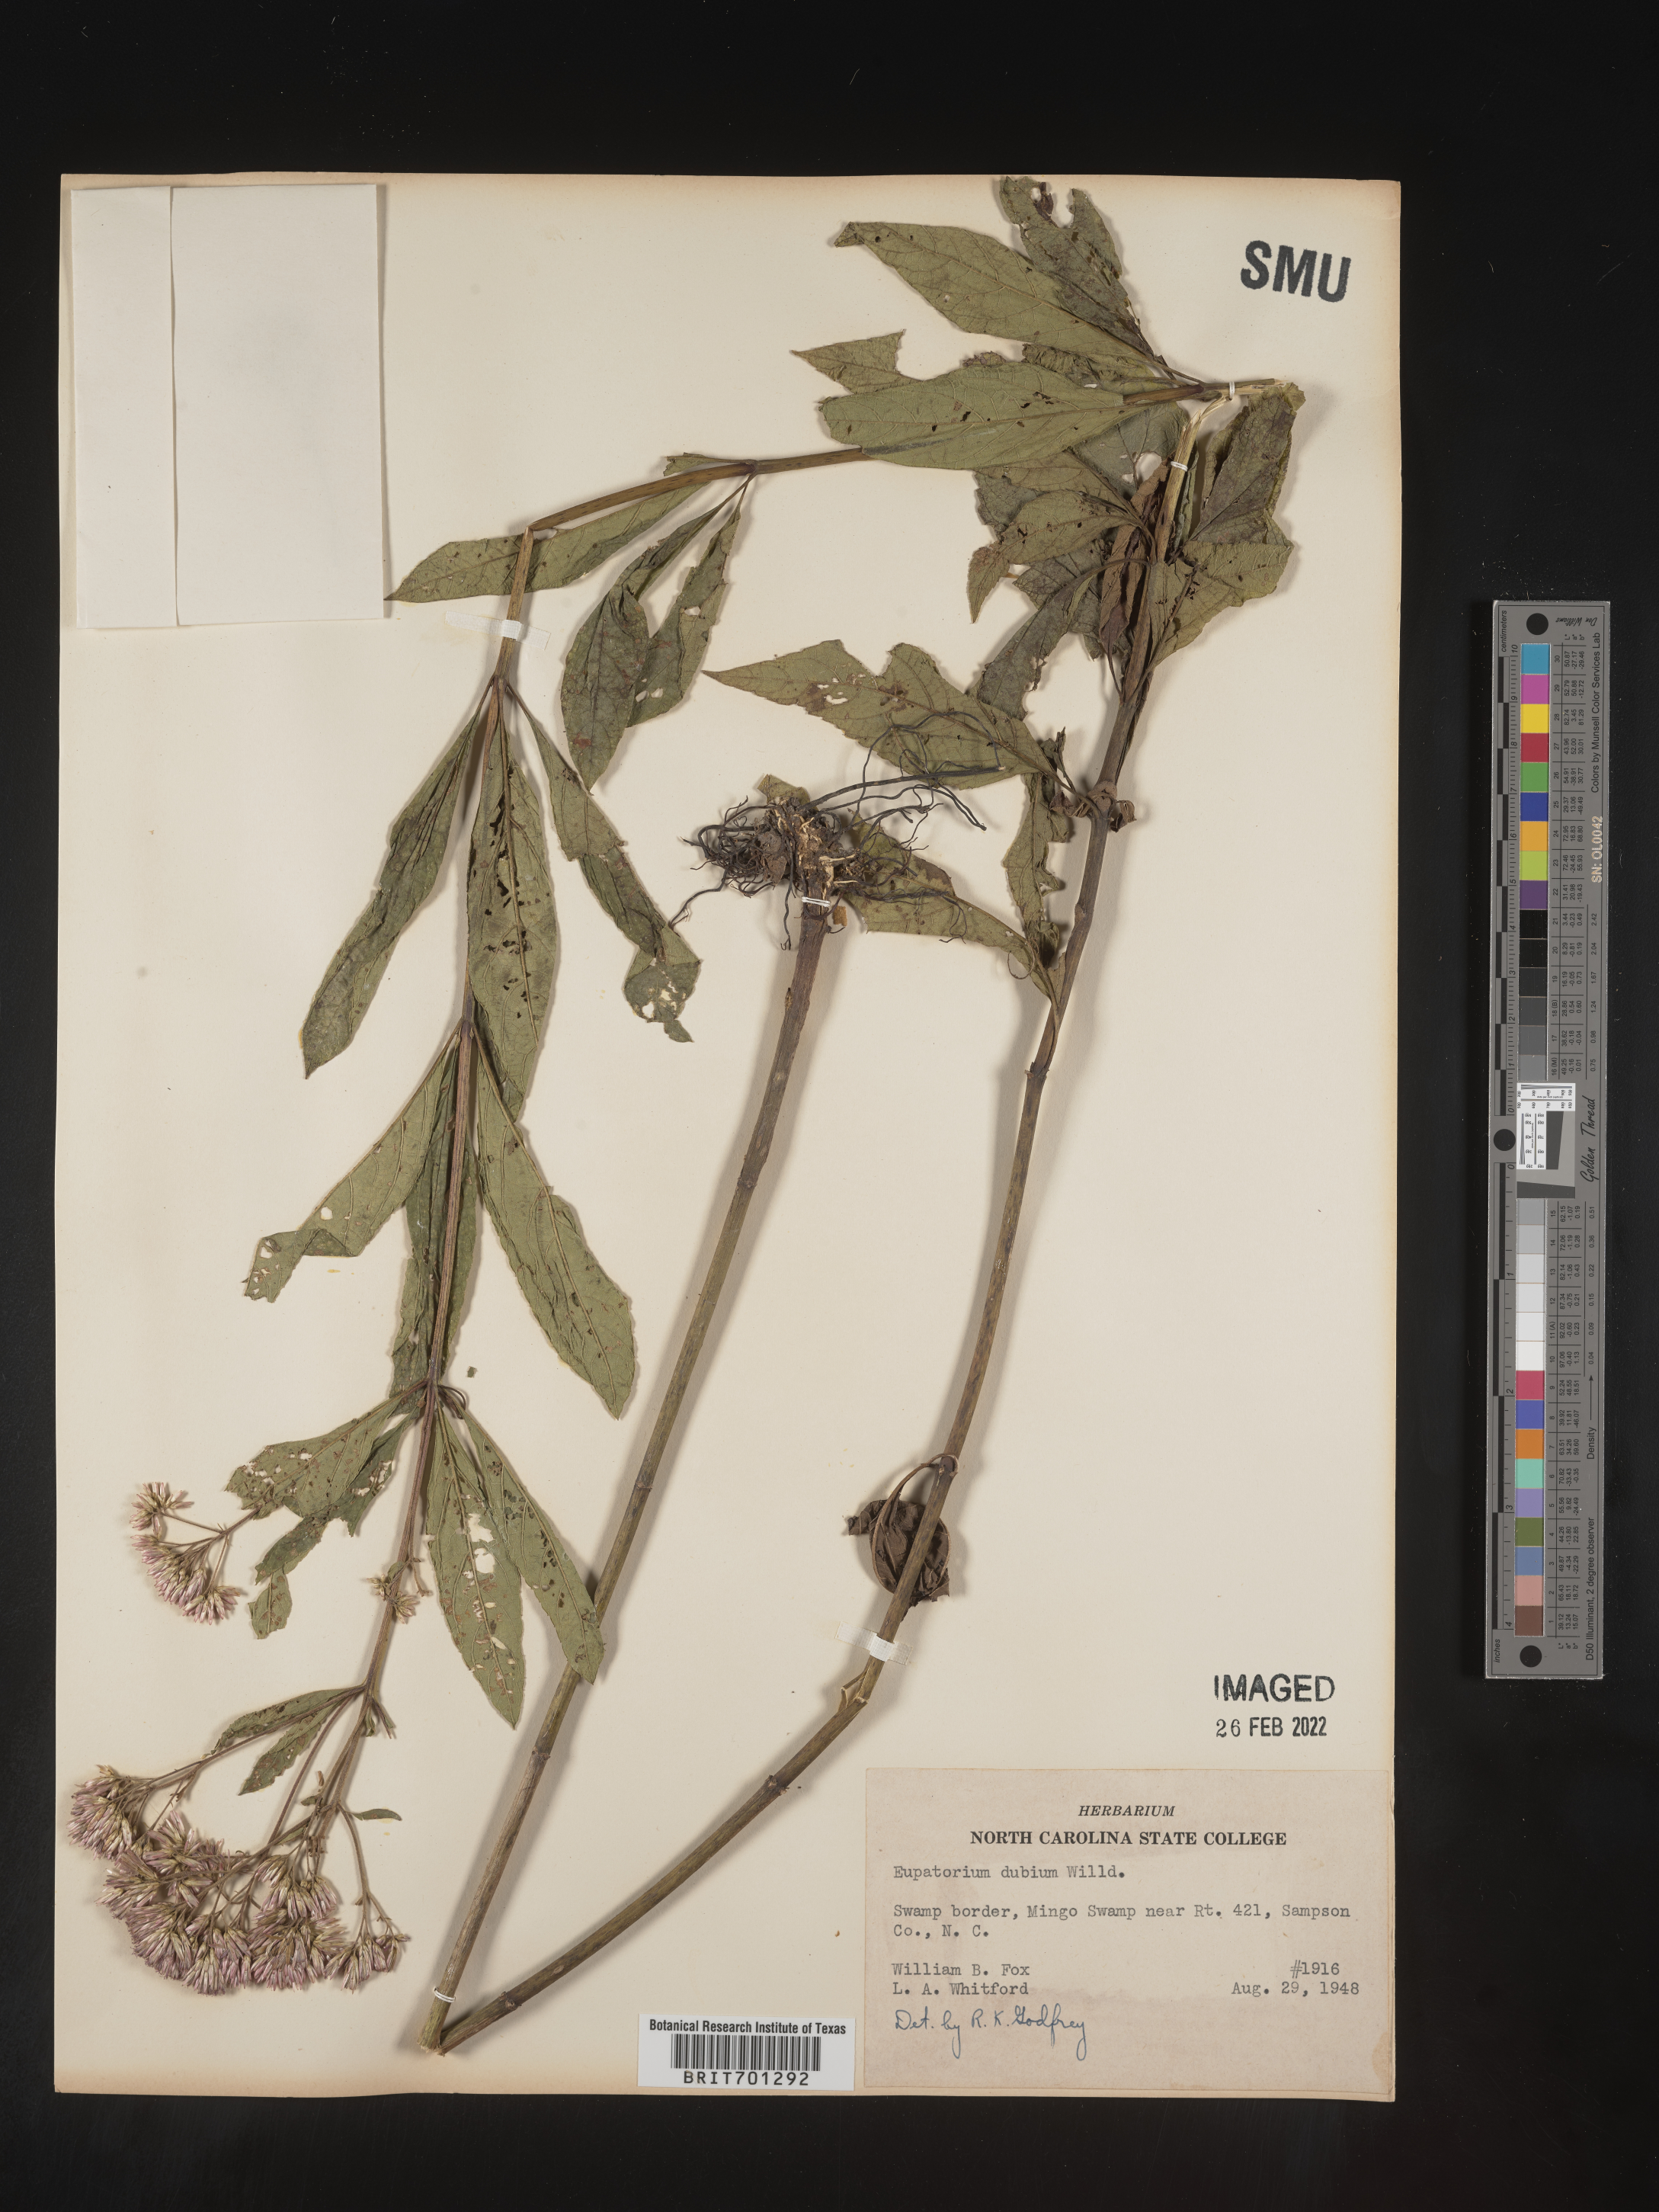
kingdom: Plantae
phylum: Tracheophyta
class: Magnoliopsida
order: Asterales
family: Asteraceae
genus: Eutrochium
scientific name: Eutrochium dubium
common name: Coastal plain joe pye weed
